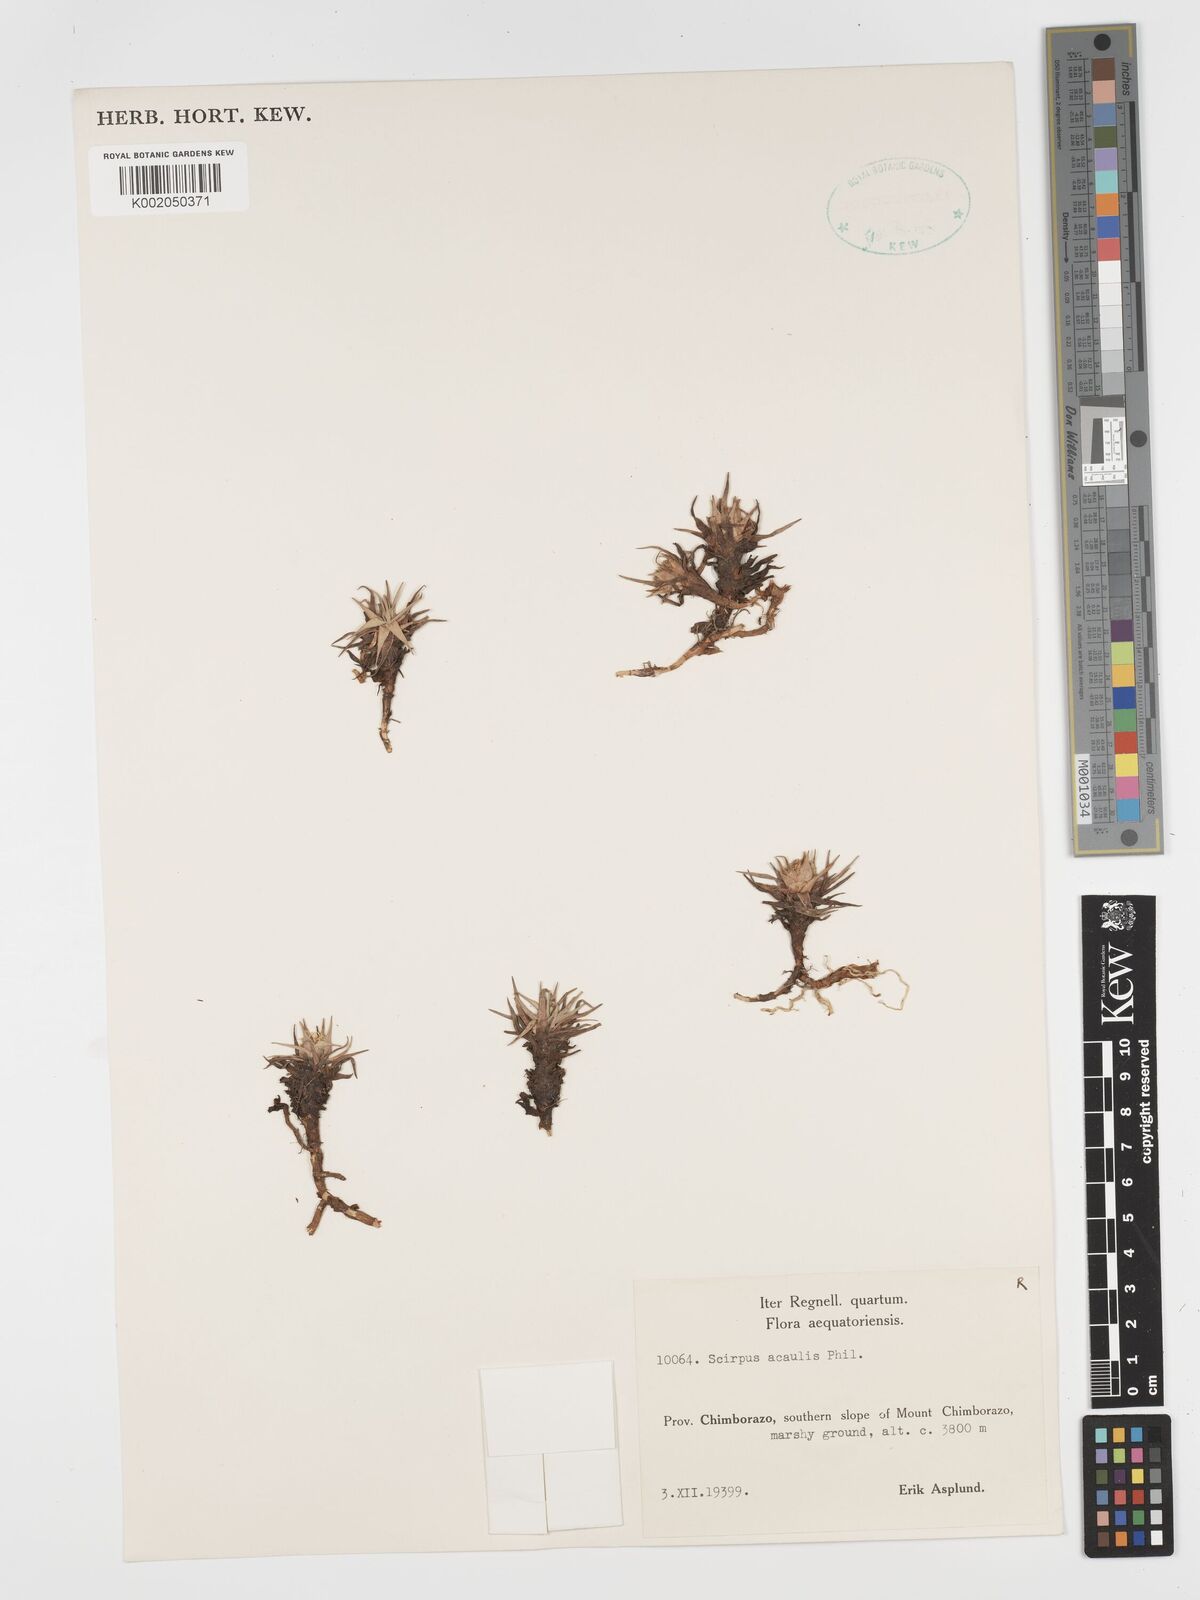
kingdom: Plantae
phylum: Tracheophyta
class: Liliopsida
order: Poales
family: Cyperaceae
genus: Phylloscirpus
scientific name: Phylloscirpus acaulis
